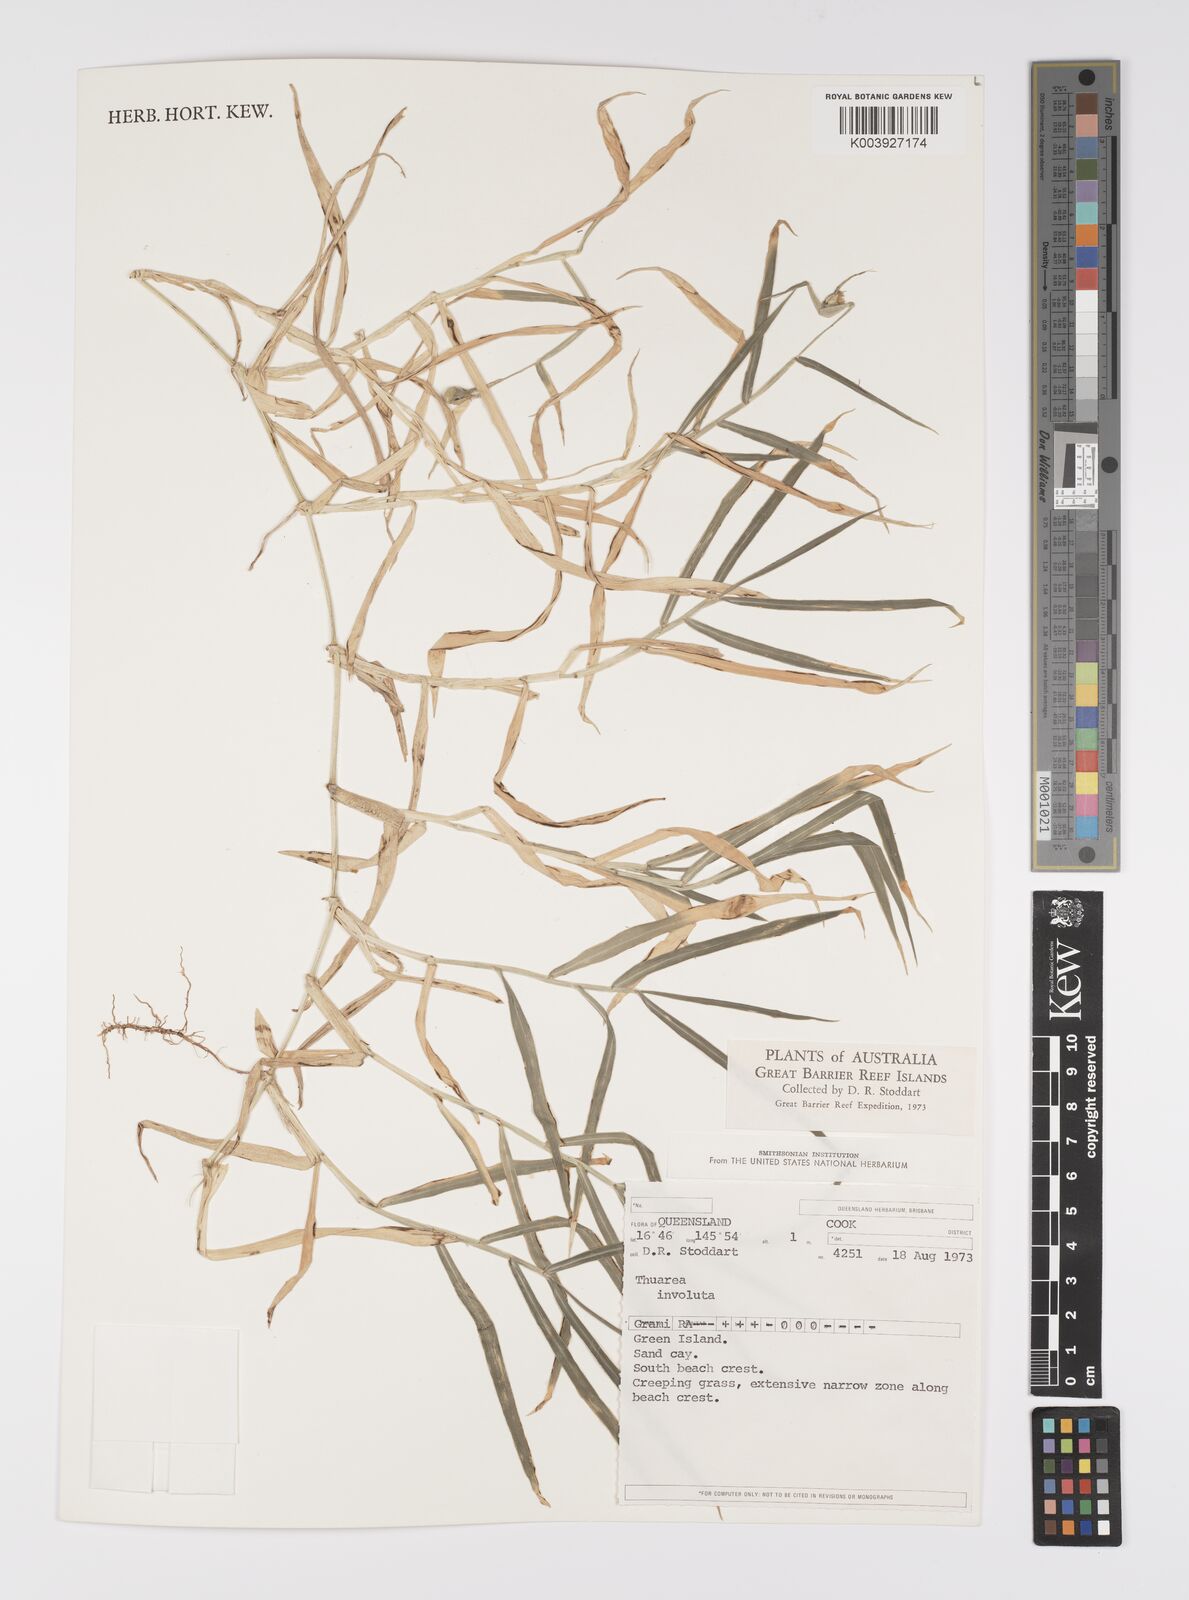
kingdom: Plantae
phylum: Tracheophyta
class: Liliopsida
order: Poales
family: Poaceae
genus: Thuarea
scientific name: Thuarea involuta
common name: Tropical beach grass
